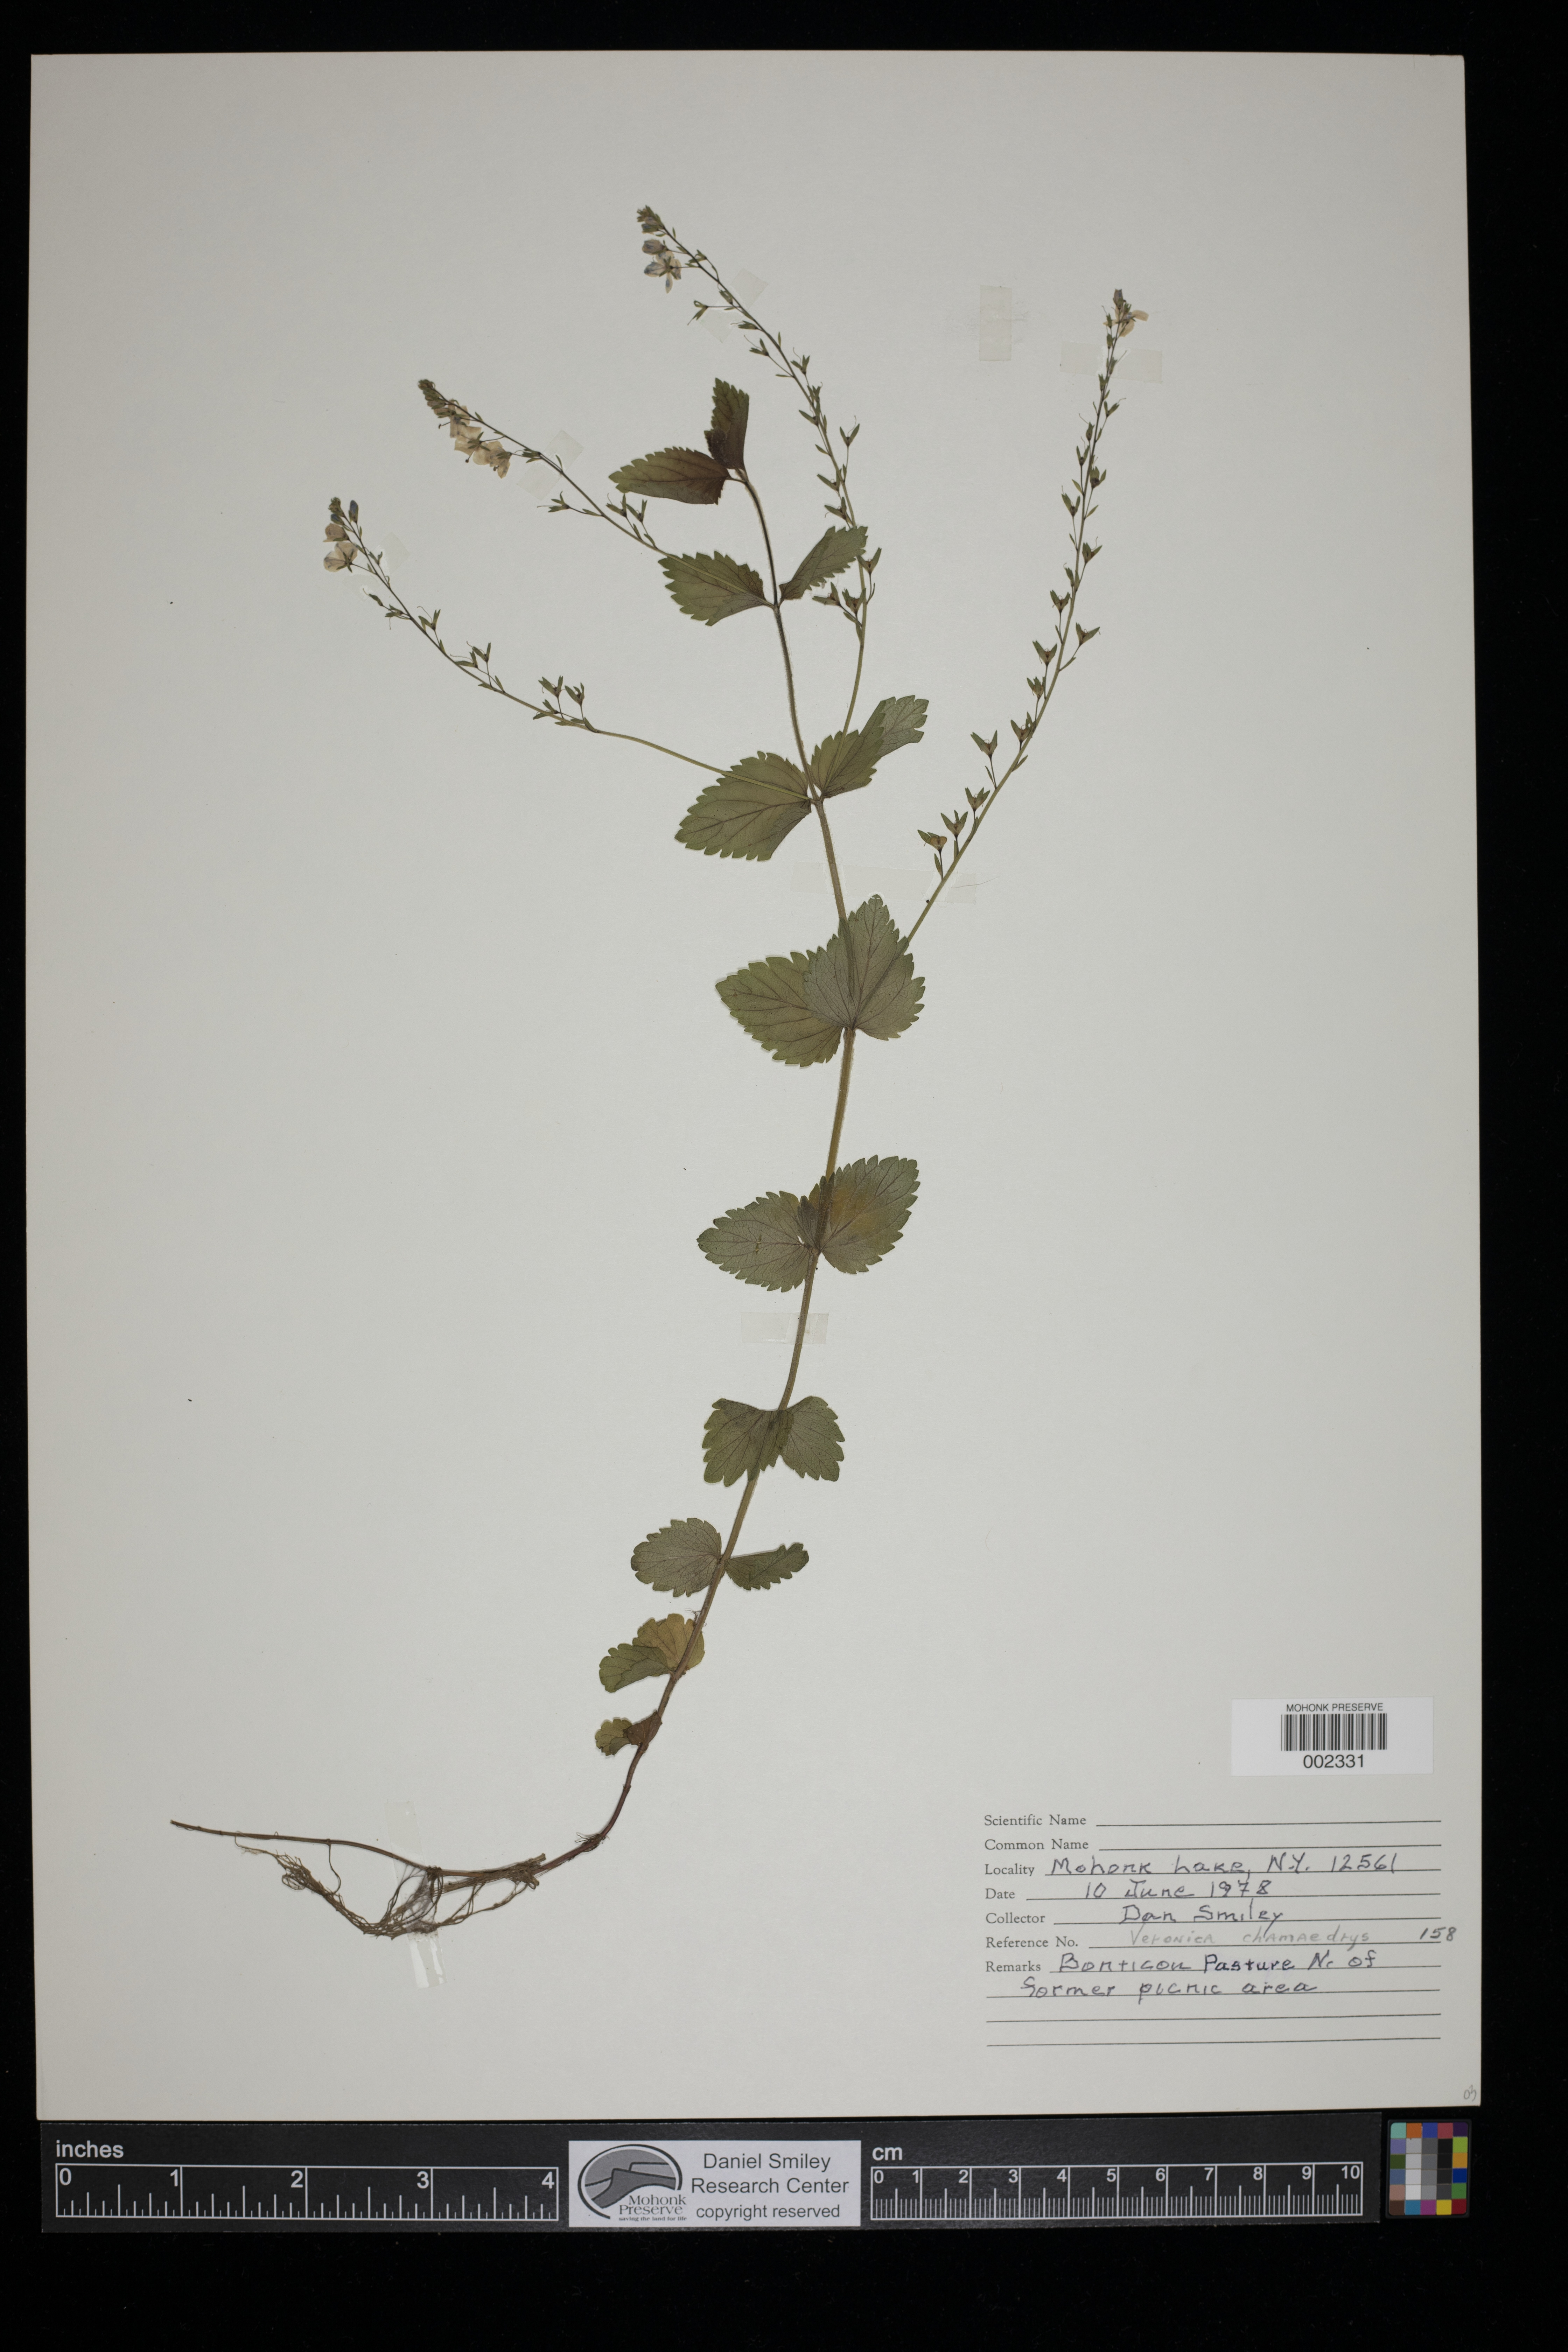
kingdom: Plantae
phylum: Tracheophyta
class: Magnoliopsida
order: Lamiales
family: Plantaginaceae
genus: Veronica
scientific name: Veronica chamaedrys
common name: Germander speedwell
